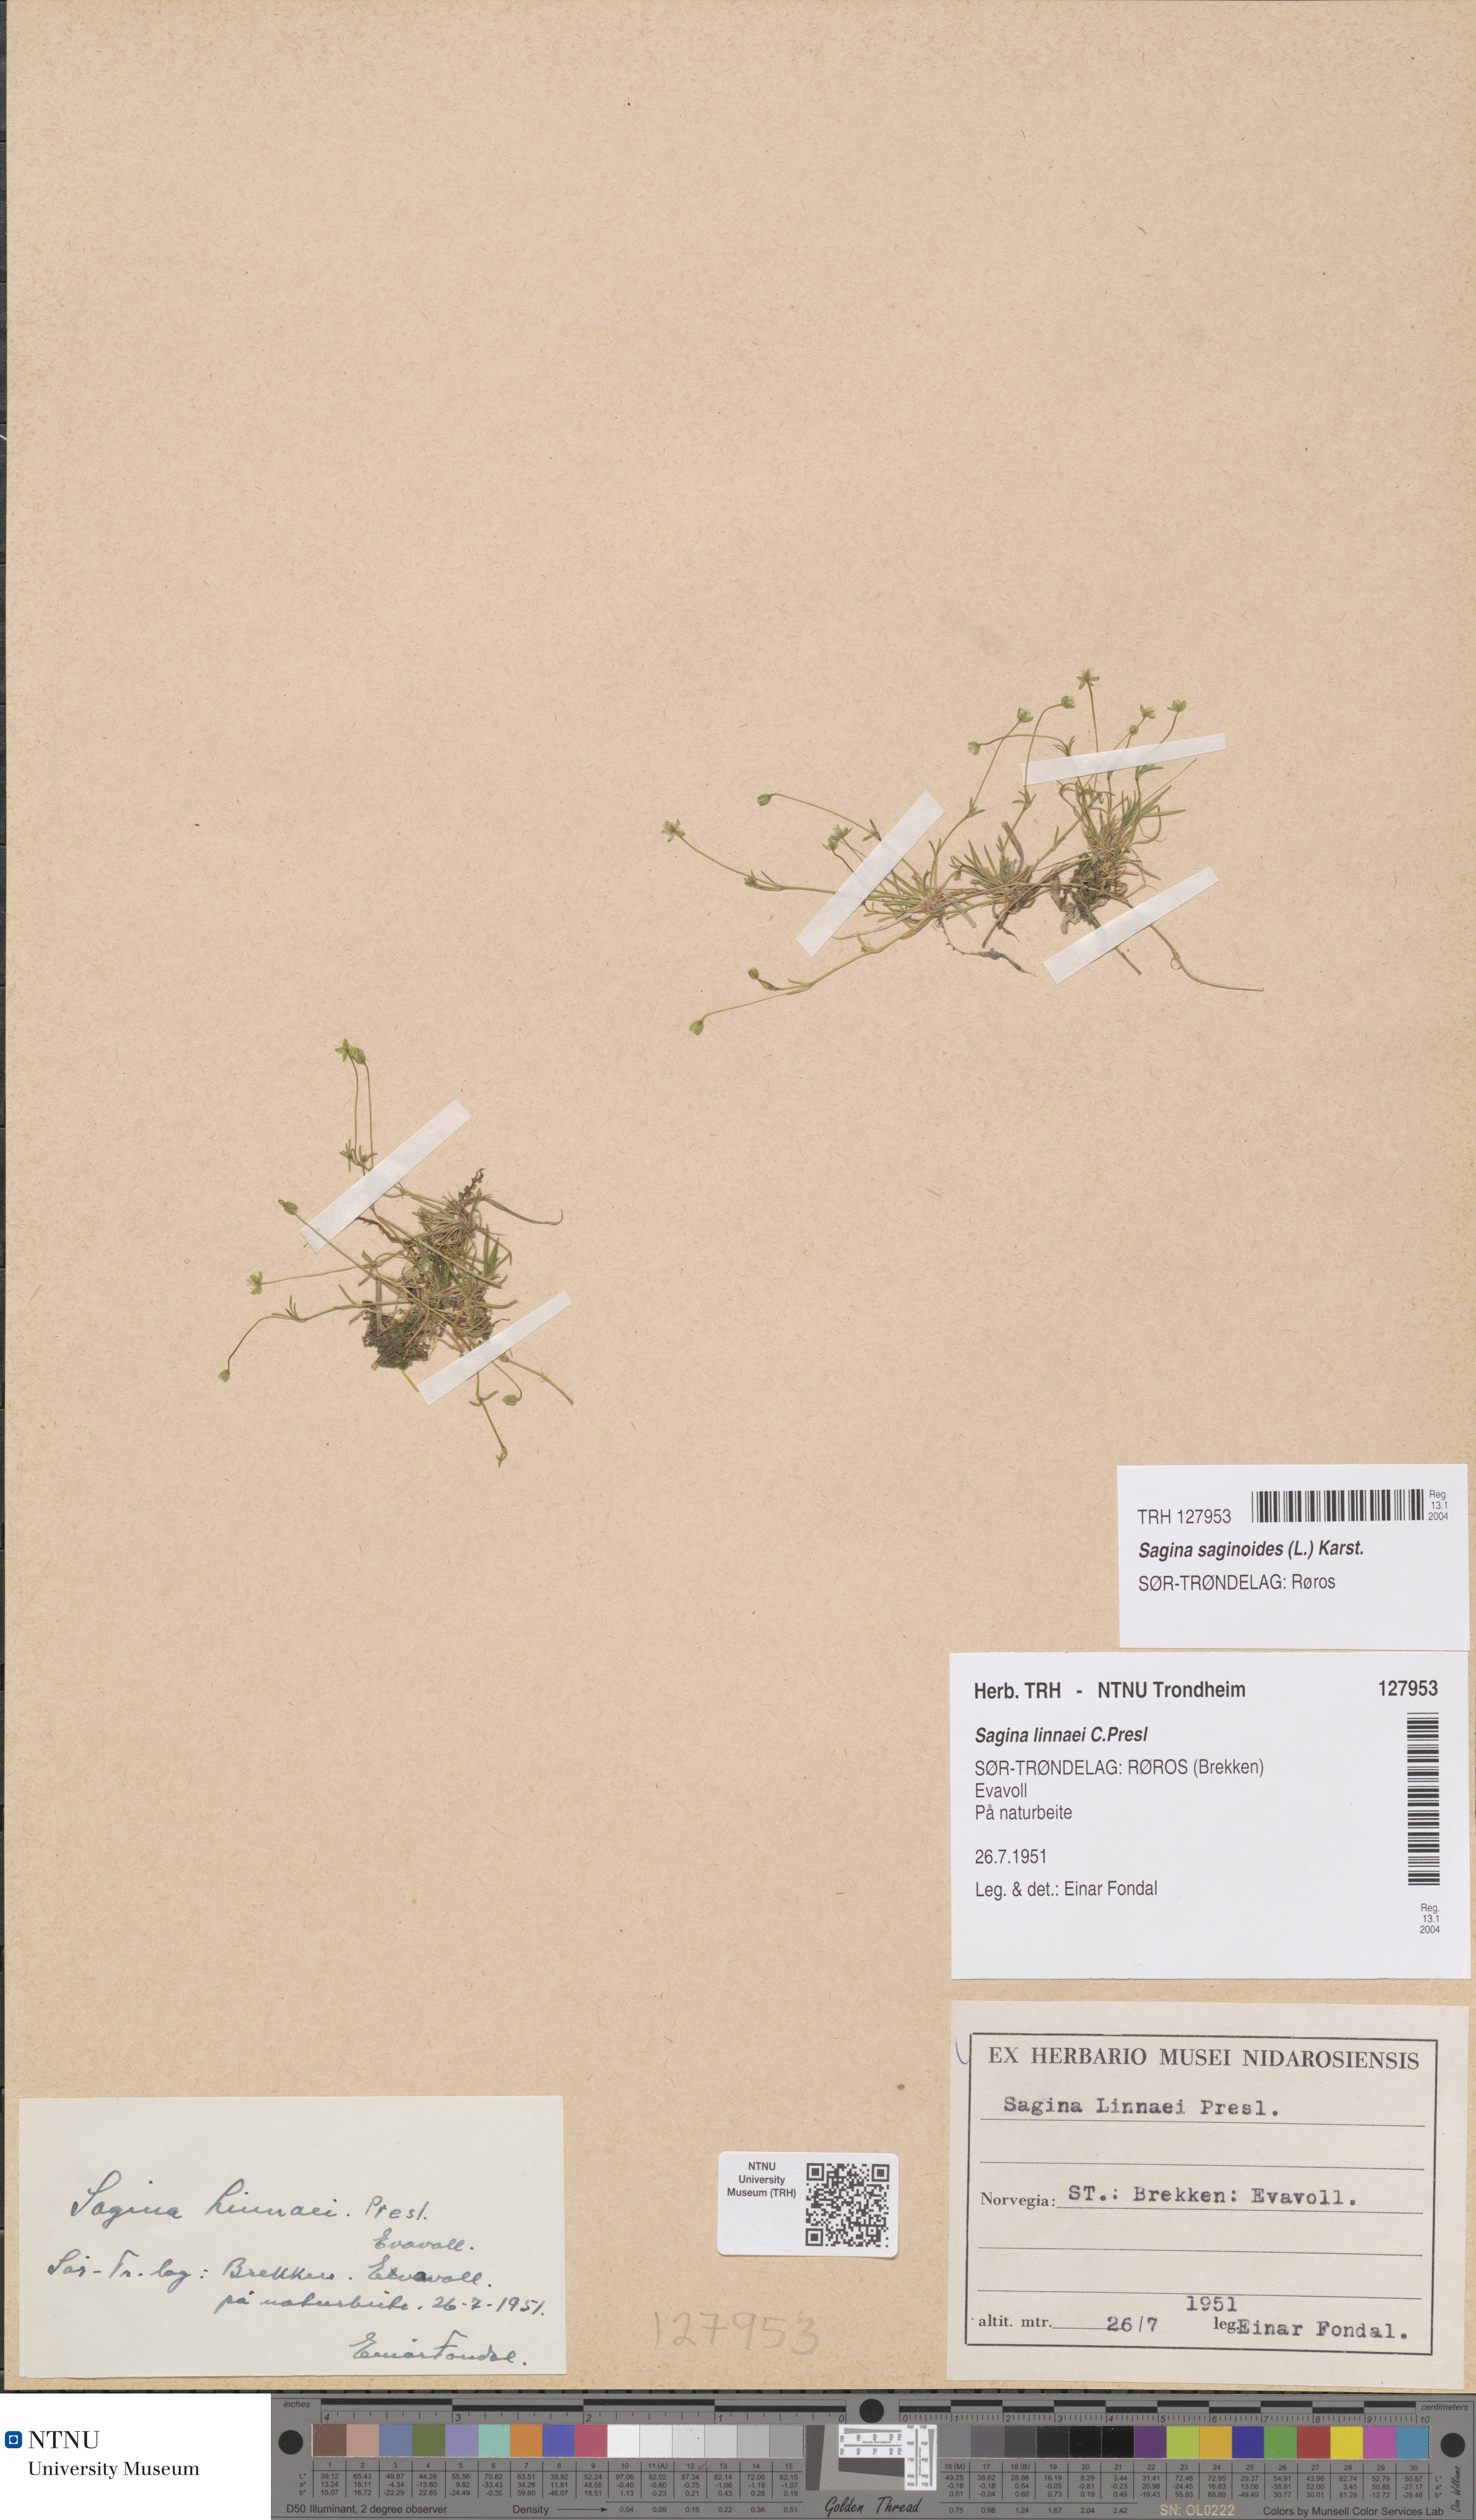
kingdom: Plantae
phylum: Tracheophyta
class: Magnoliopsida
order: Caryophyllales
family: Caryophyllaceae
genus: Sagina
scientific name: Sagina saginoides
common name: Alpine pearlwort
